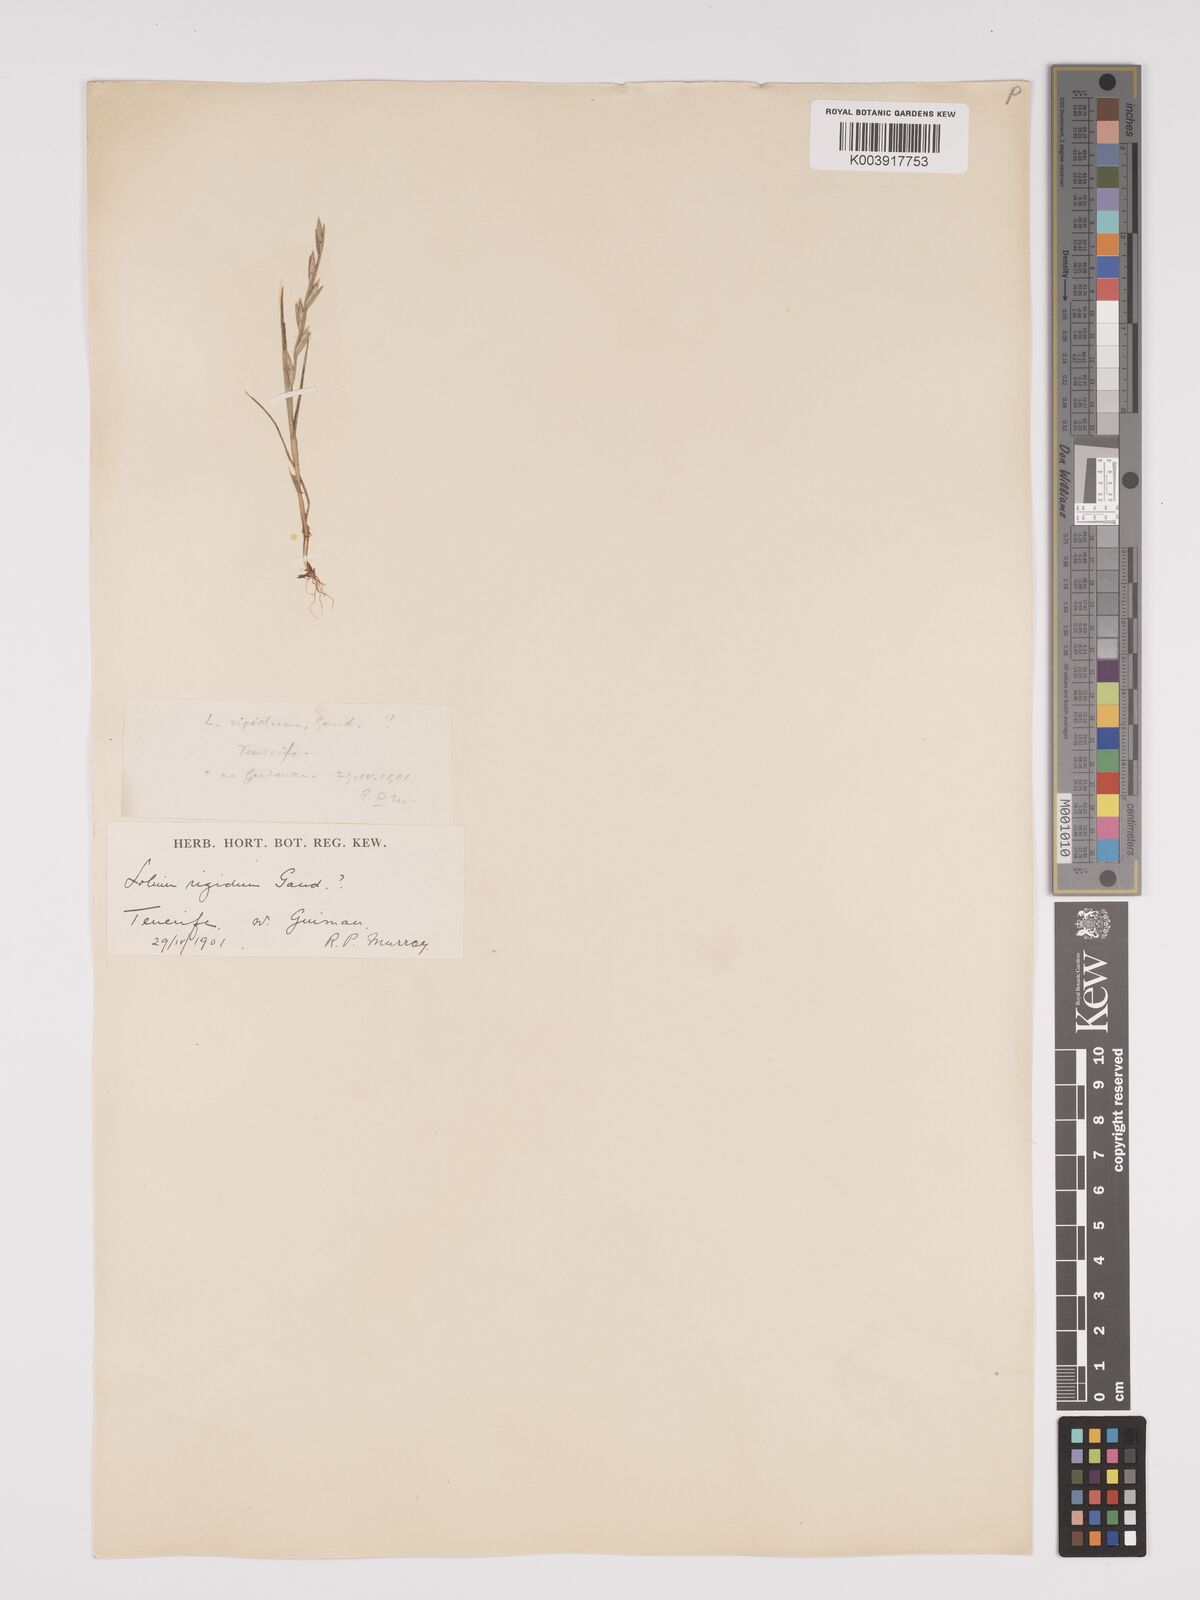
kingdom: Plantae
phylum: Tracheophyta
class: Liliopsida
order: Poales
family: Poaceae
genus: Lolium
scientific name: Lolium rigidum
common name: Wimmera ryegrass
